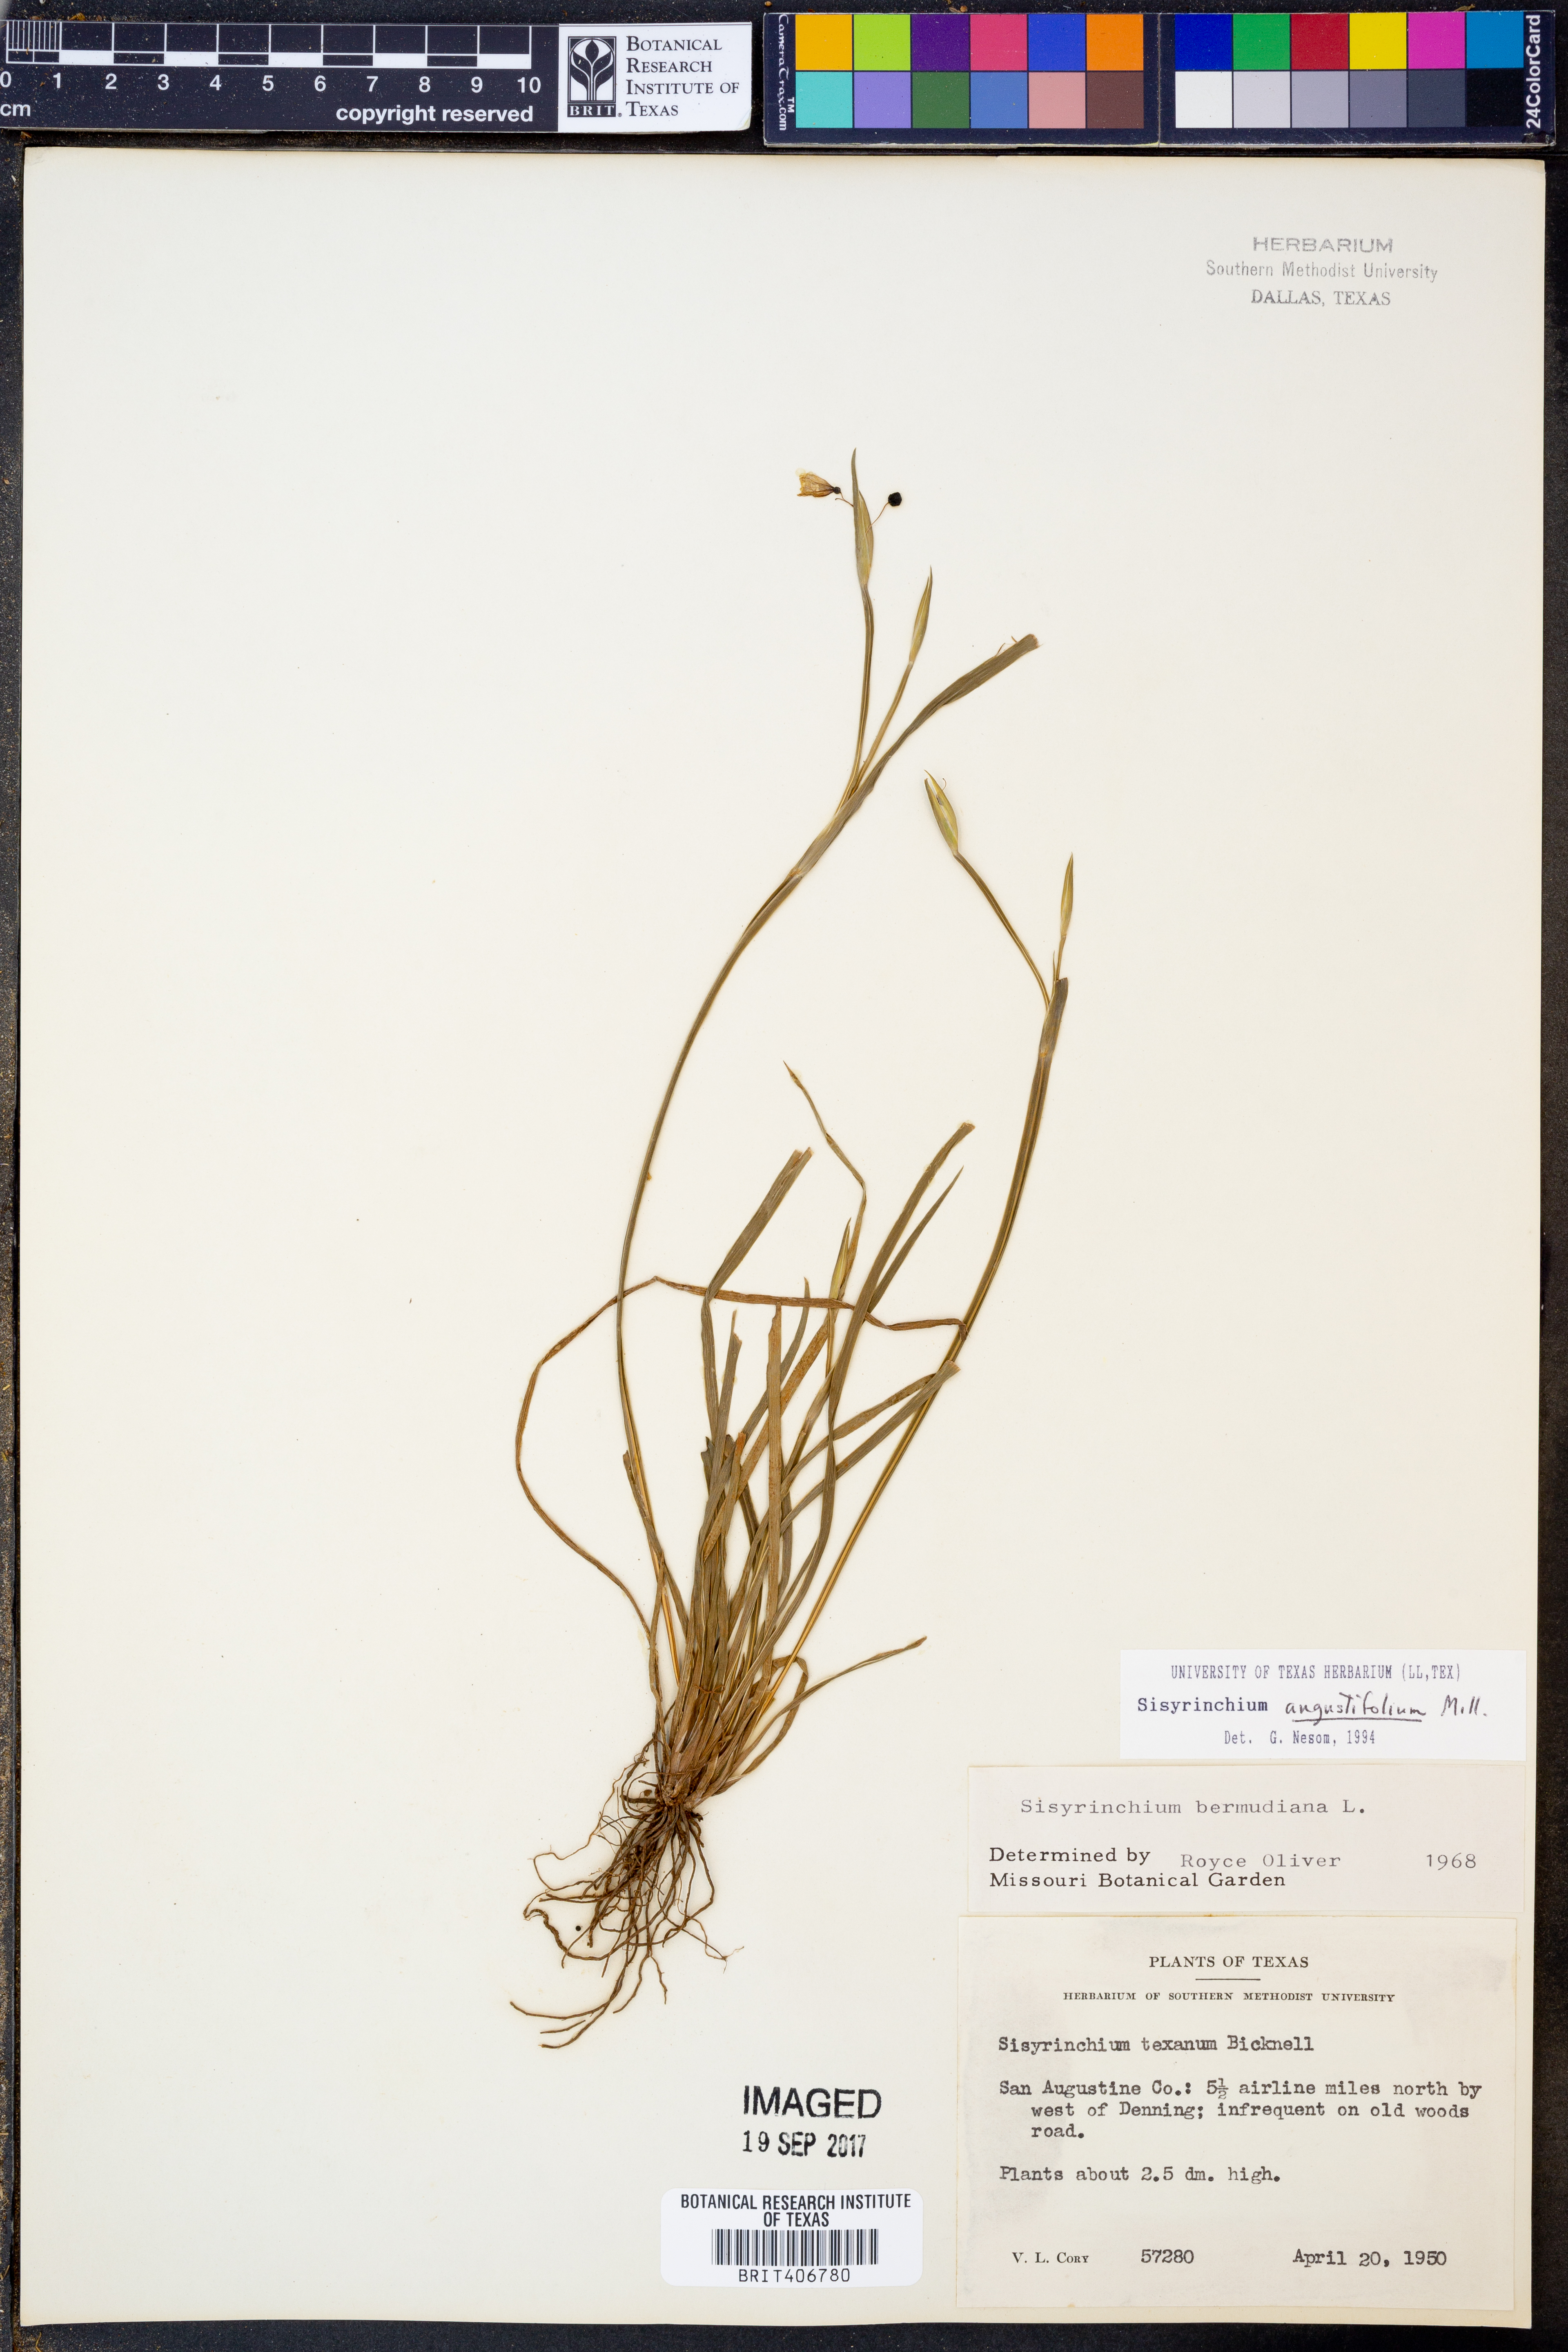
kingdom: Plantae
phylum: Tracheophyta
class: Liliopsida
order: Asparagales
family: Iridaceae
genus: Sisyrinchium
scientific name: Sisyrinchium angustifolium
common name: Narrow-leaf blue-eyed-grass
